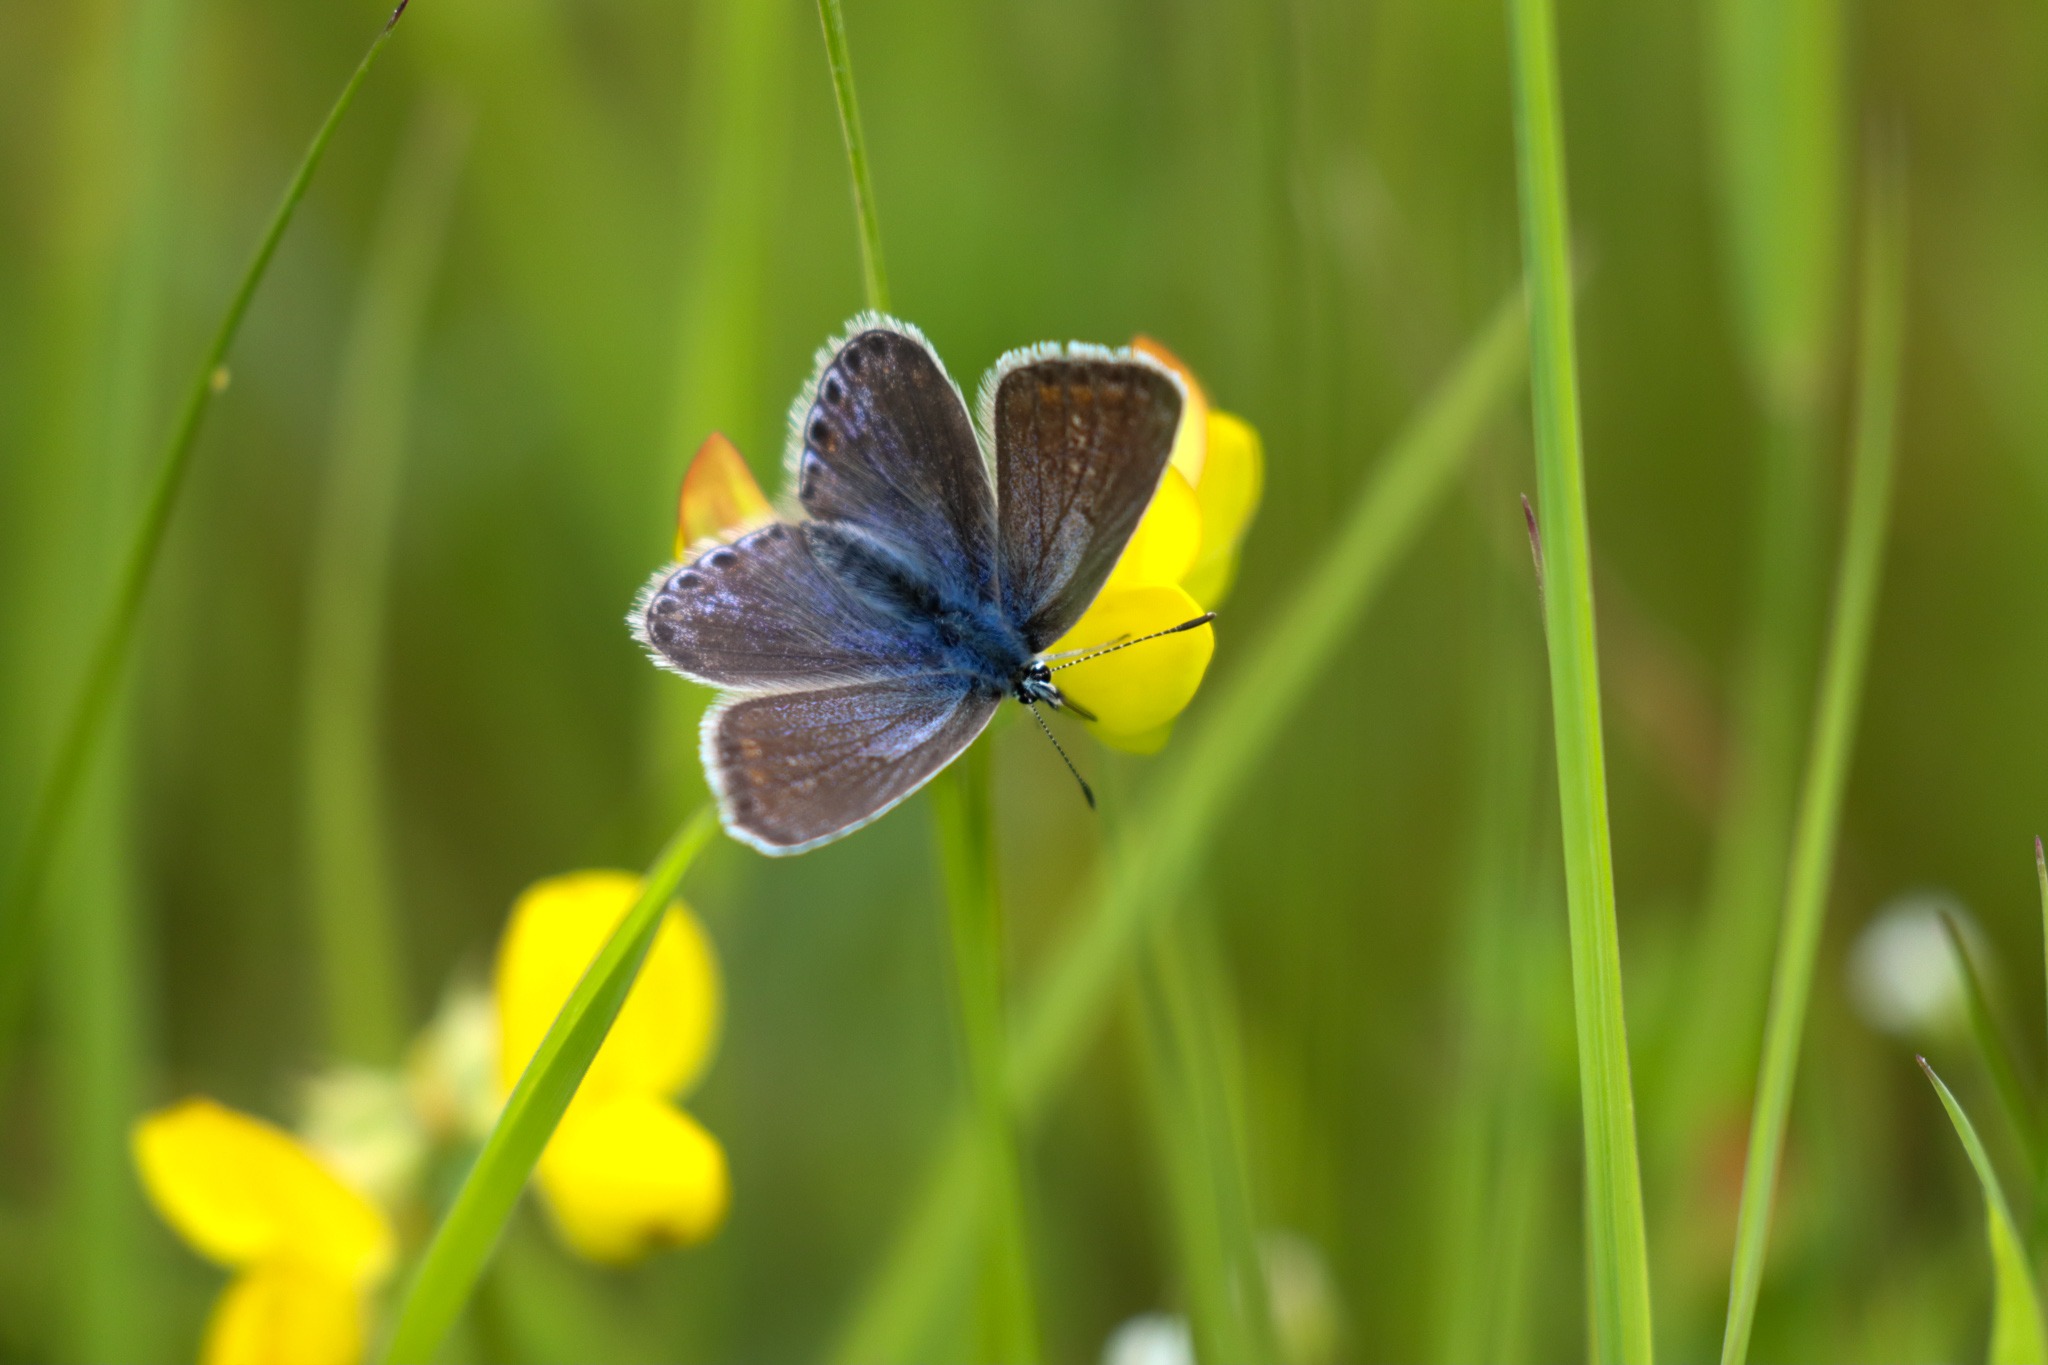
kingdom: Animalia
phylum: Arthropoda
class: Insecta
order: Lepidoptera
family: Lycaenidae
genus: Polyommatus
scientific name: Polyommatus icarus
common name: Almindelig blåfugl
